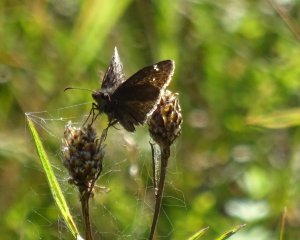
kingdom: Animalia
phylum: Arthropoda
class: Insecta
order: Lepidoptera
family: Hesperiidae
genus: Gesta
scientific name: Gesta
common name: Wild Indigo Duskywing
